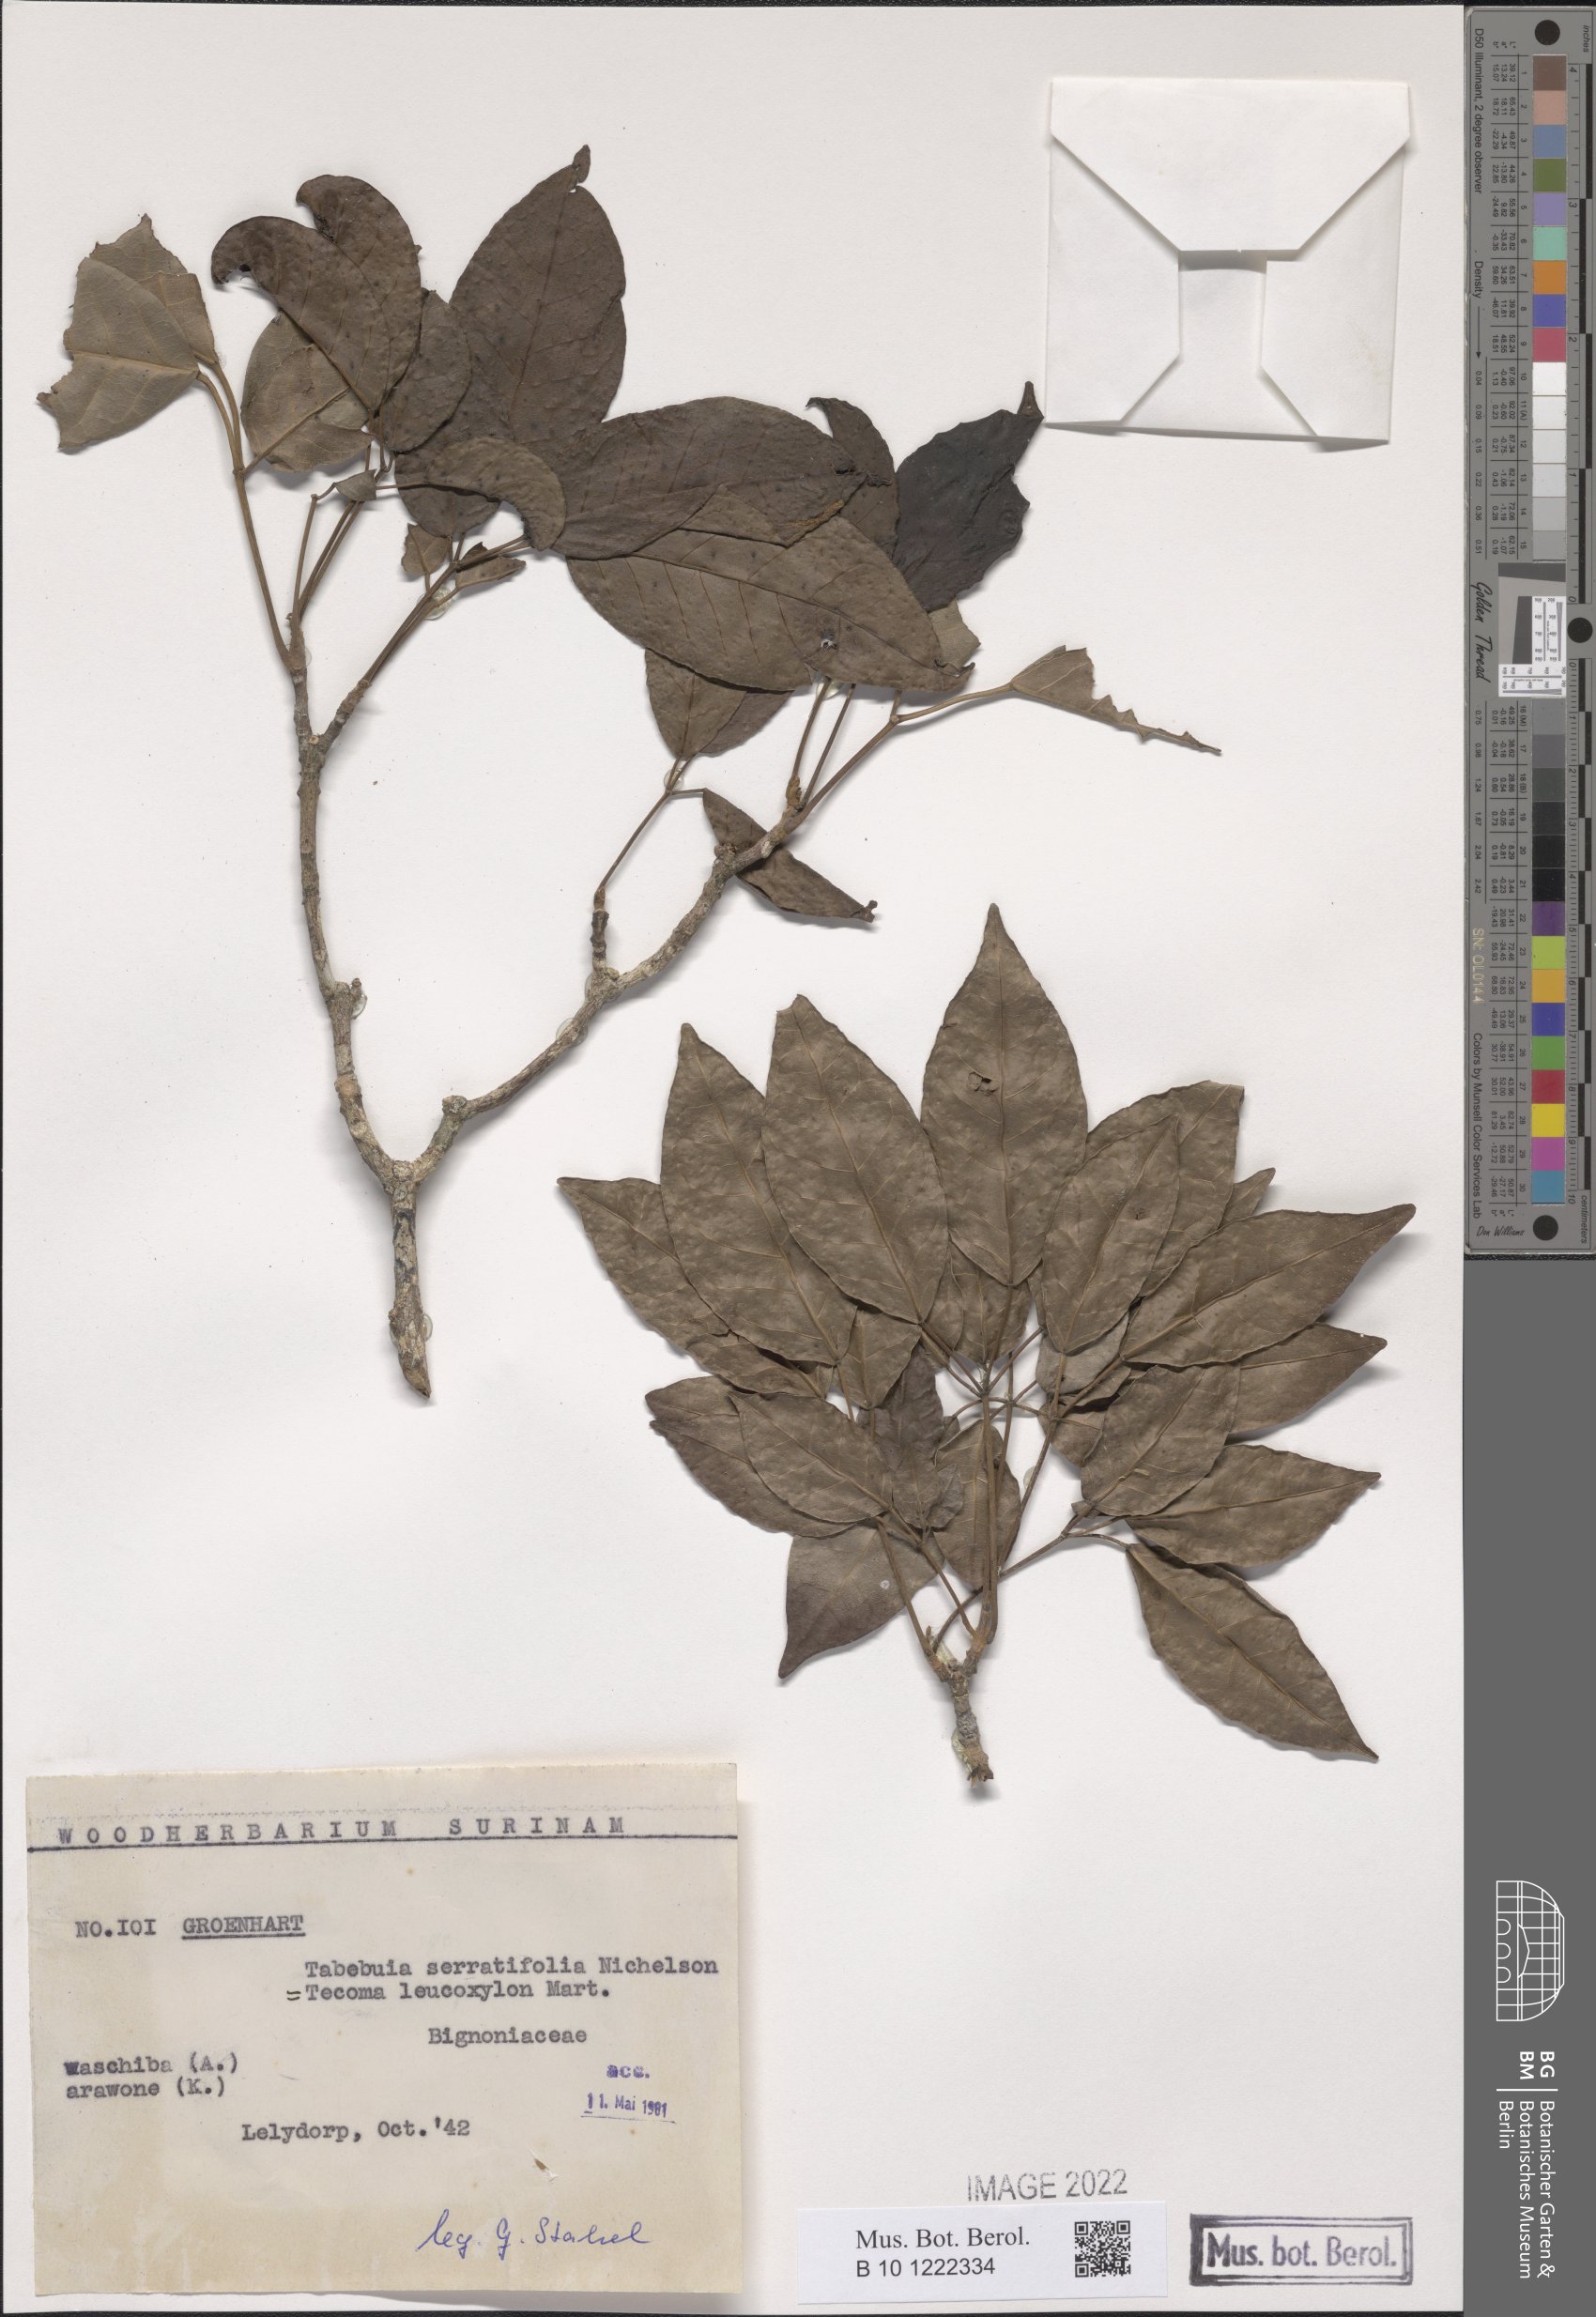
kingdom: Plantae
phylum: Tracheophyta
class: Magnoliopsida
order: Lamiales
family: Bignoniaceae
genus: Handroanthus
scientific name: Handroanthus serratifolius
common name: Yellow ipe
